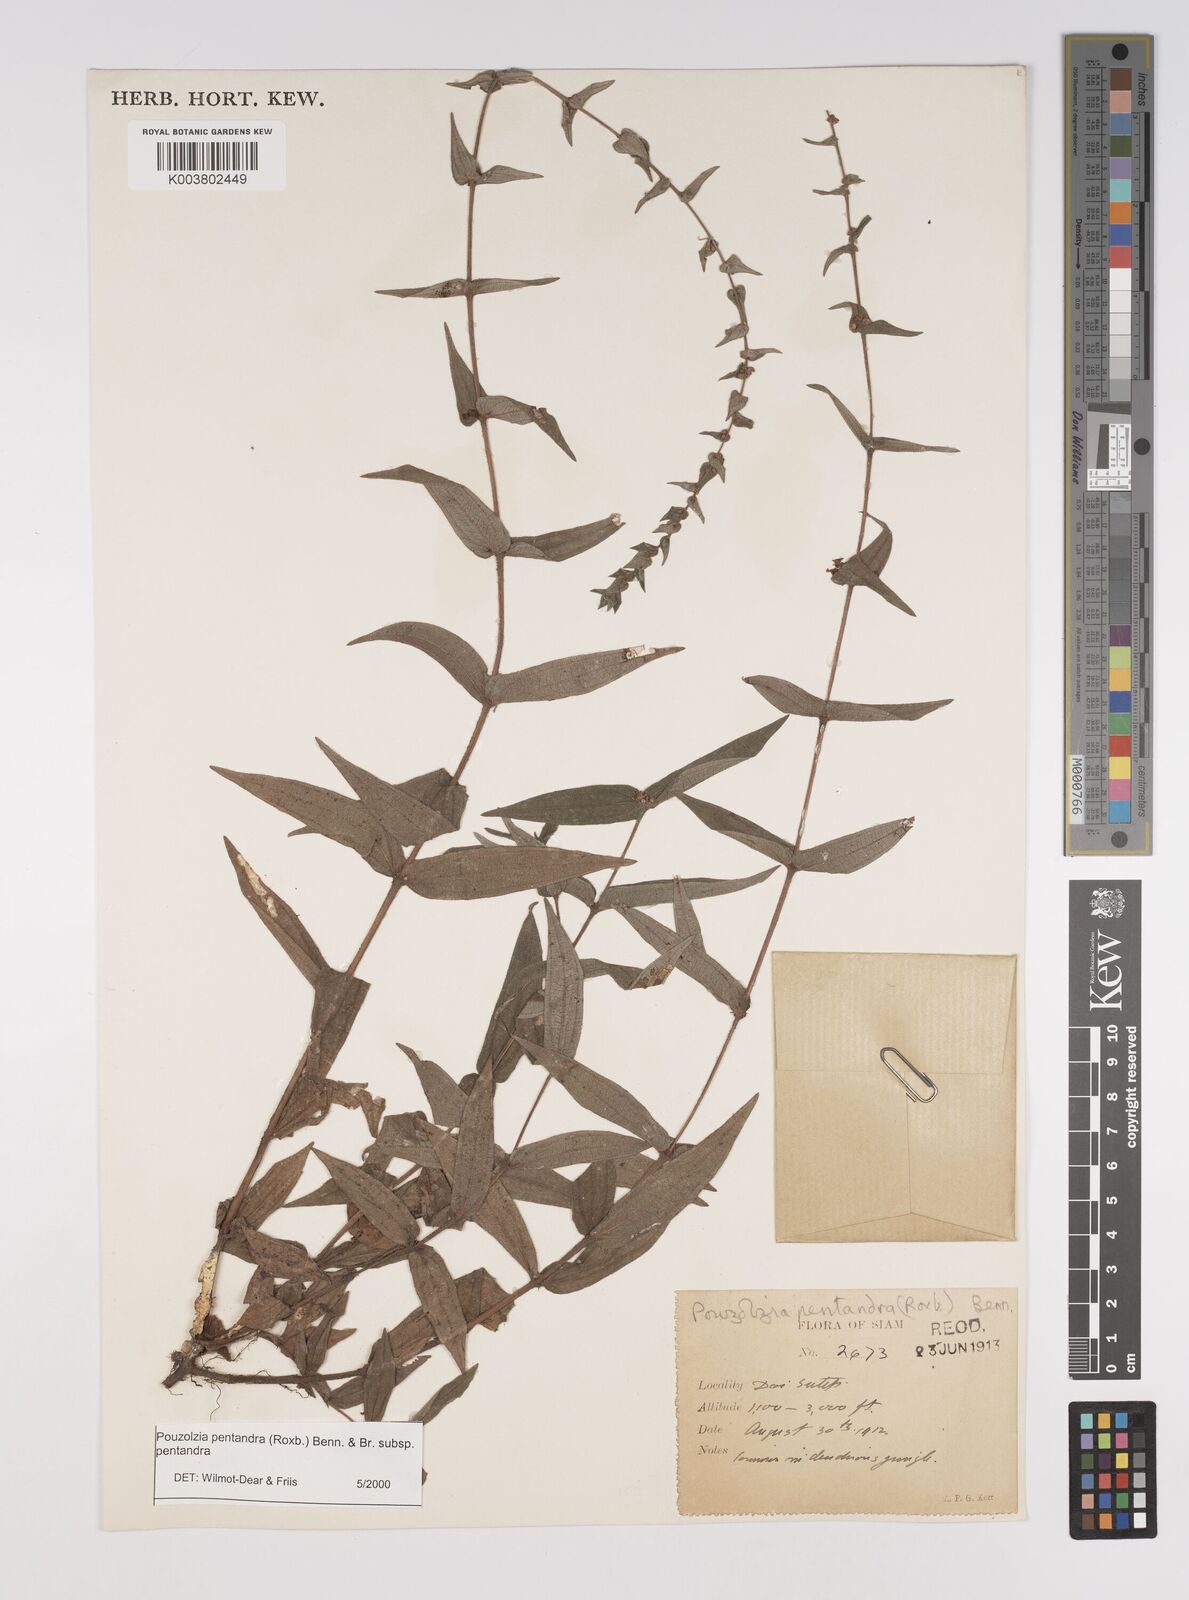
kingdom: Plantae
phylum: Tracheophyta
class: Magnoliopsida
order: Rosales
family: Urticaceae
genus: Gonostegia
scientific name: Gonostegia pentandra
